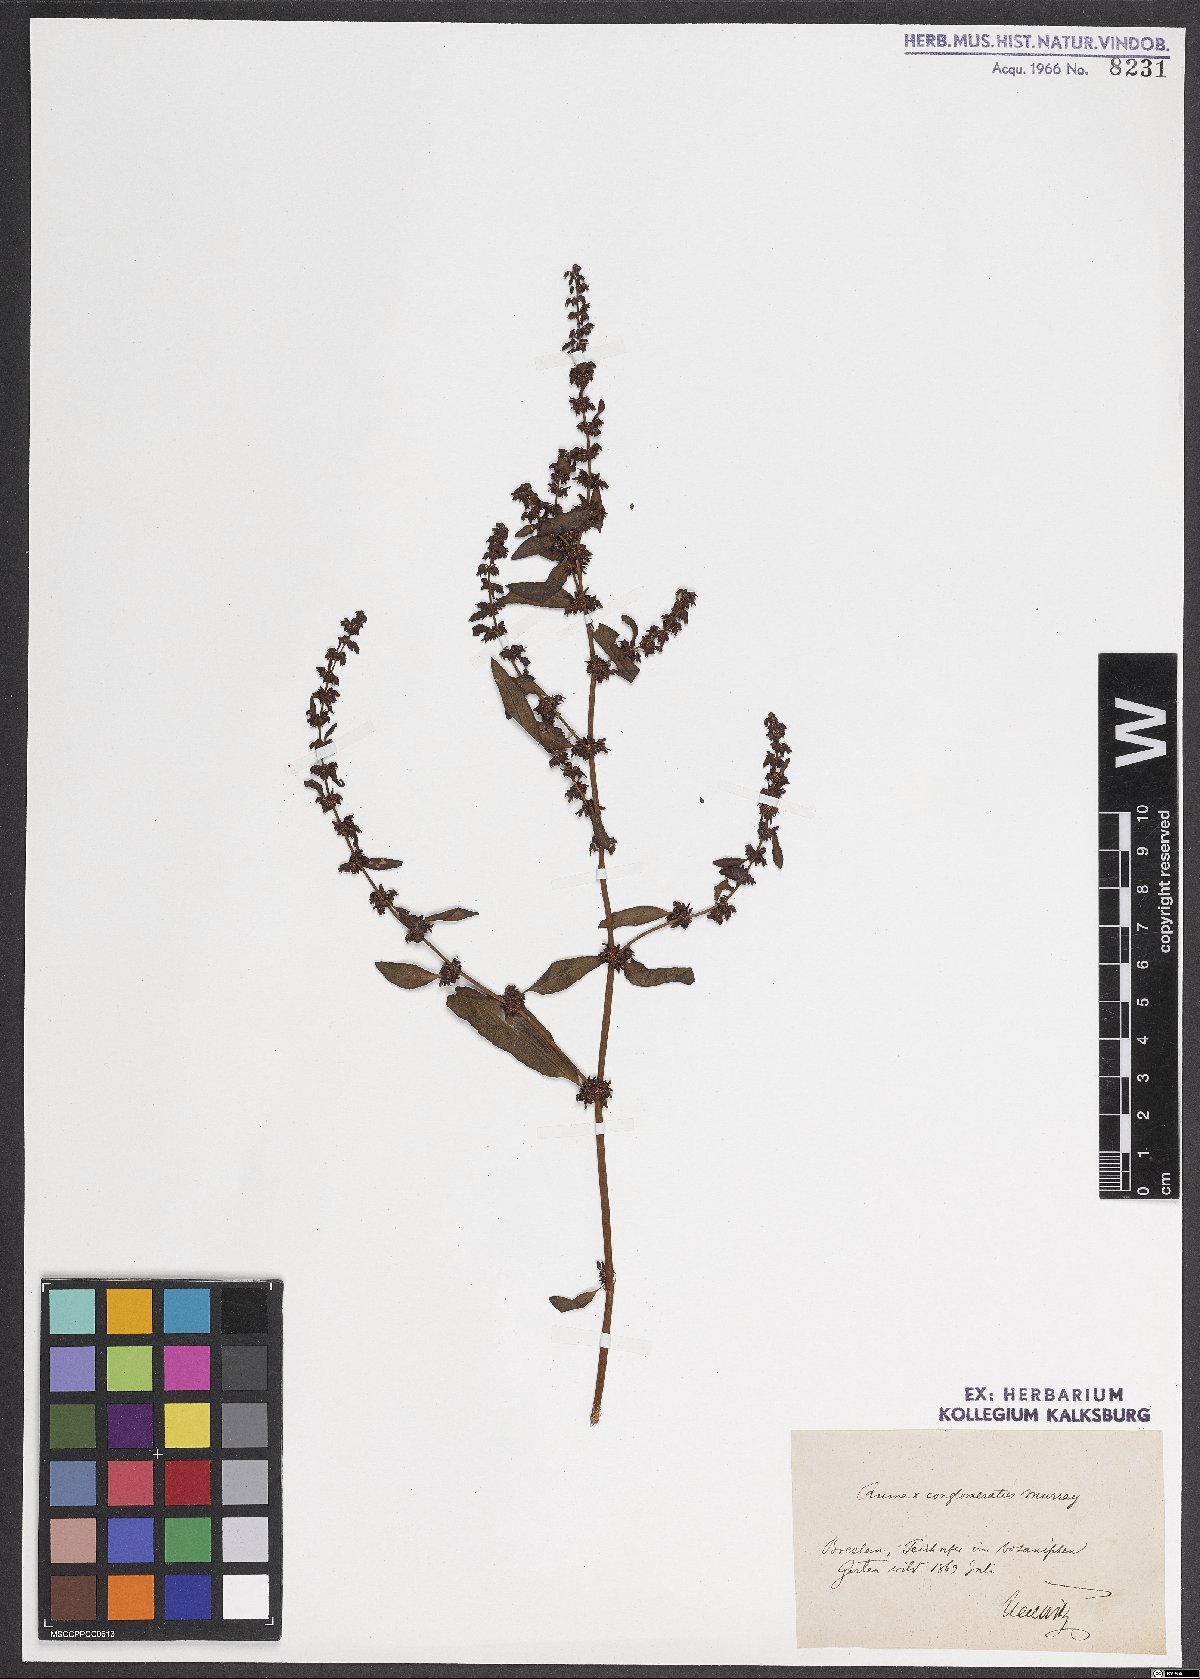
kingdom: Plantae
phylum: Tracheophyta
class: Magnoliopsida
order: Caryophyllales
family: Polygonaceae
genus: Rumex
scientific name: Rumex conglomeratus
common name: Clustered dock
